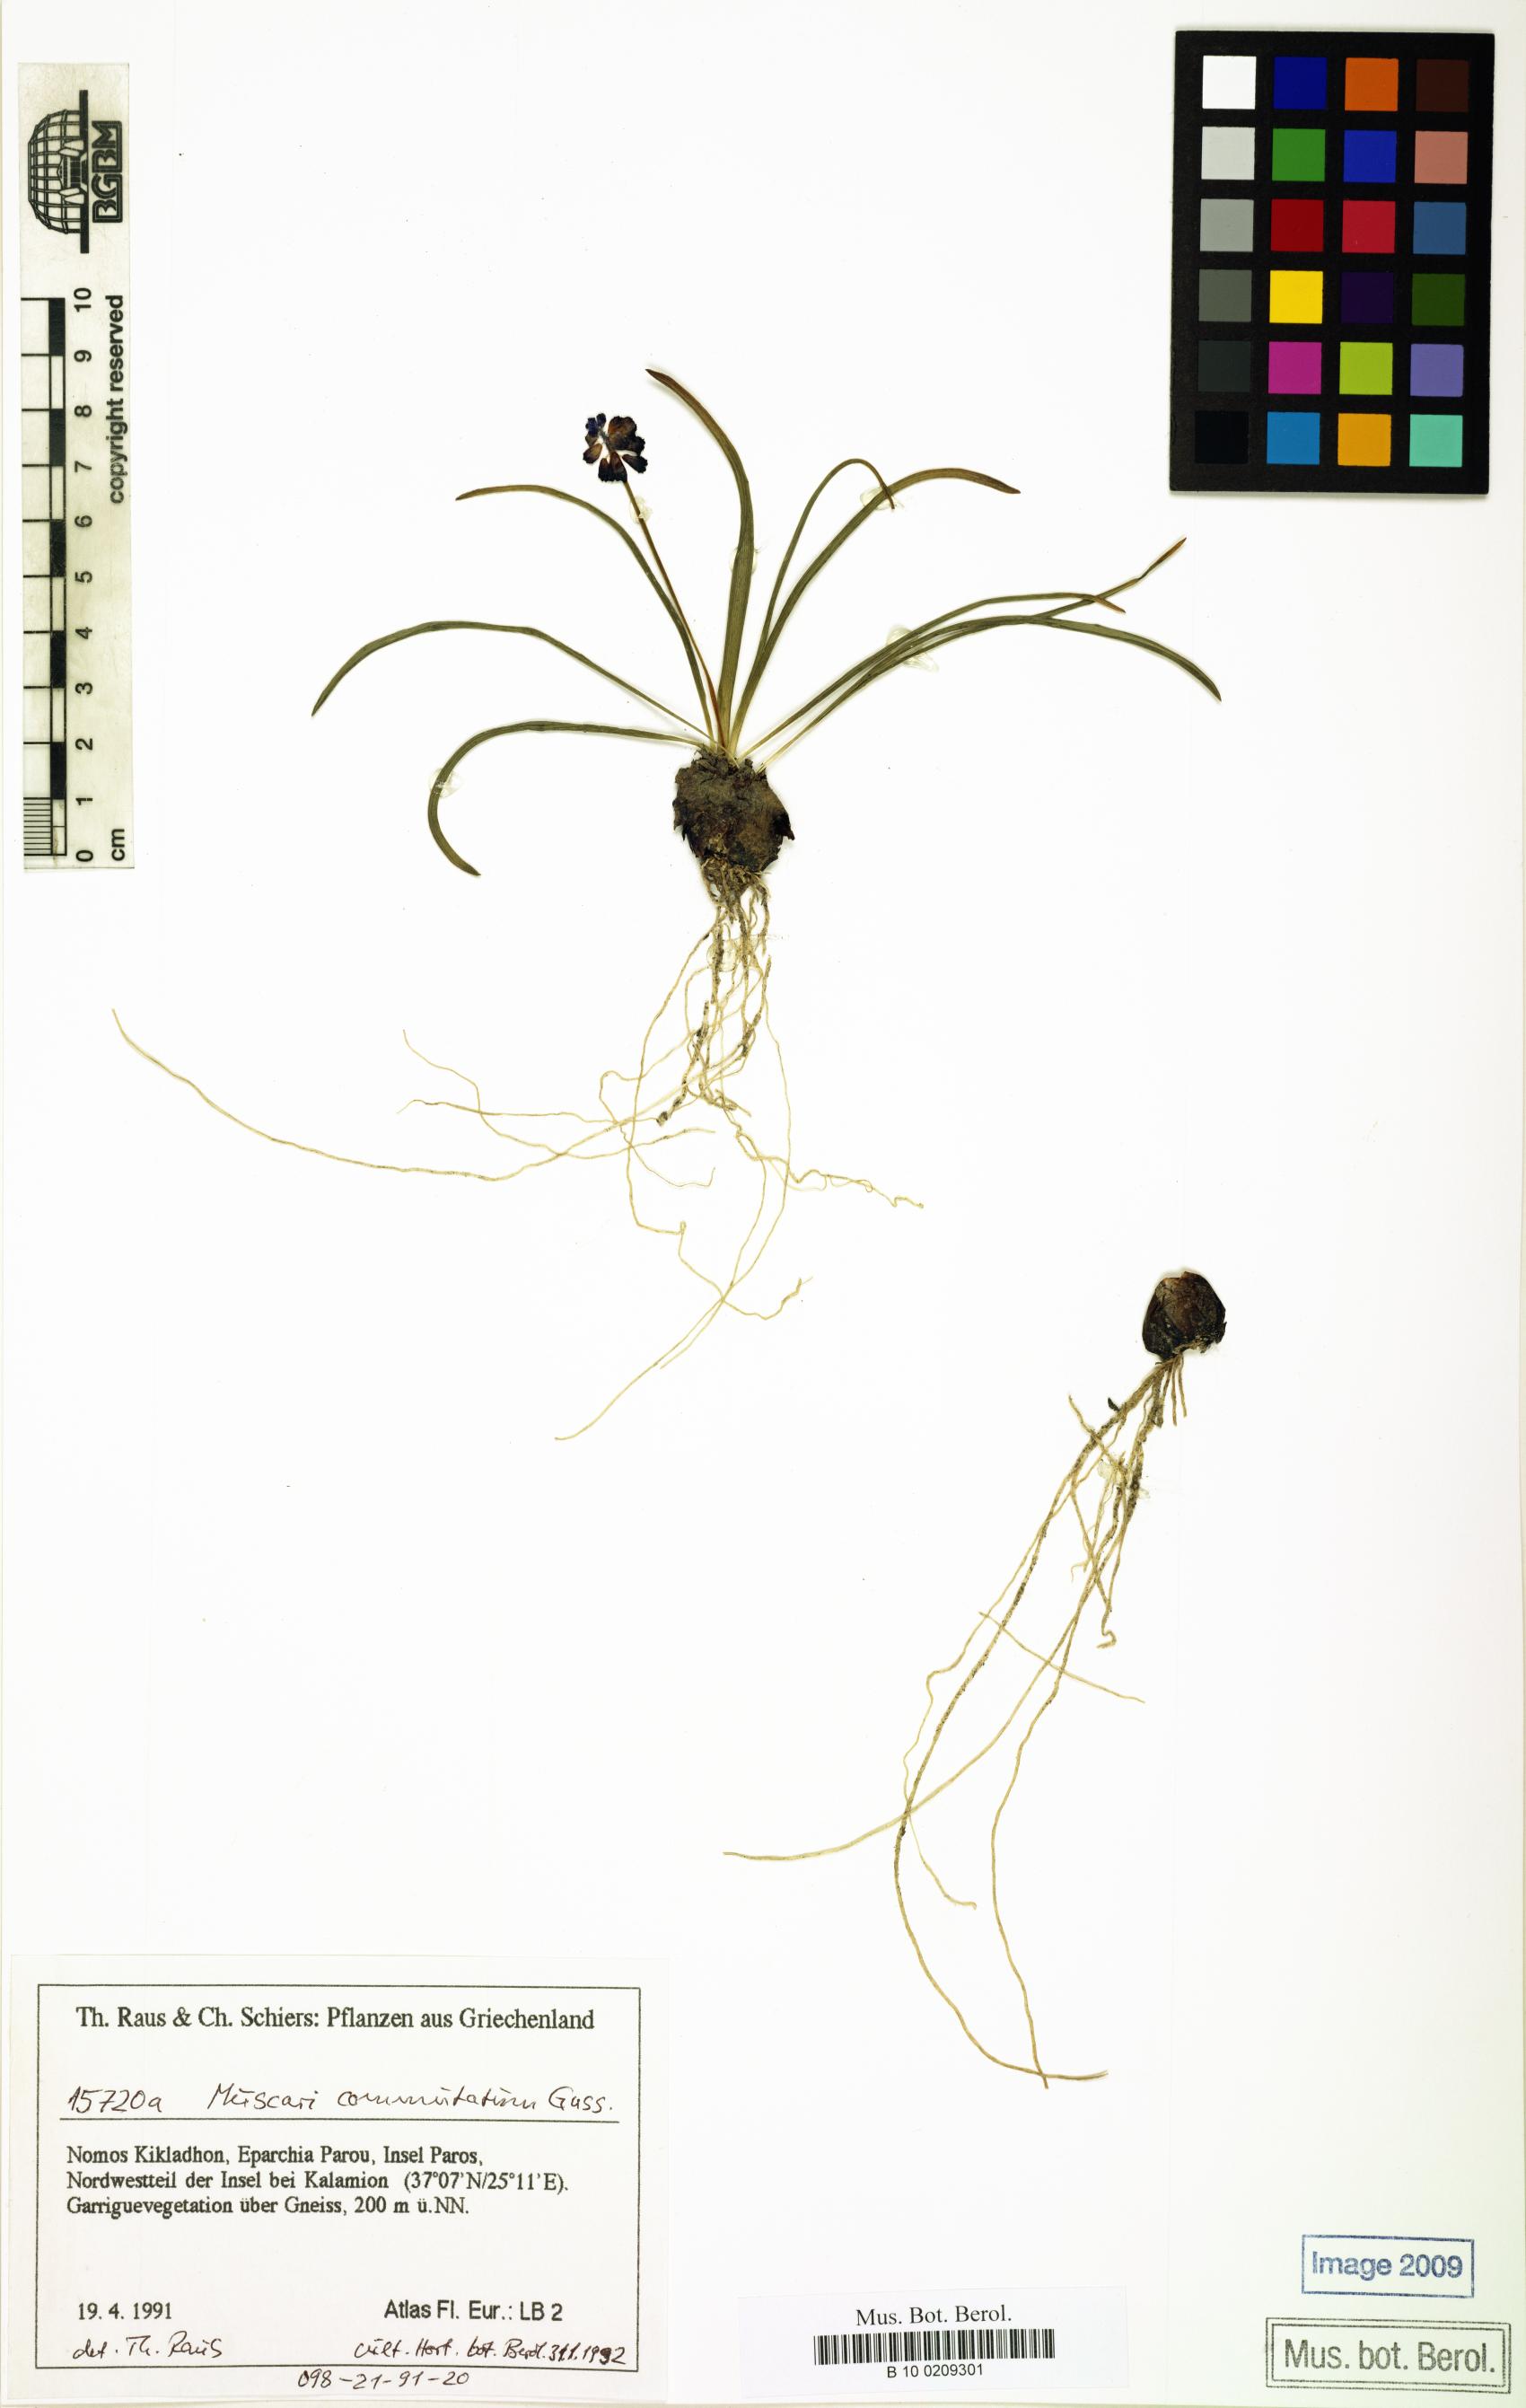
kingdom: Plantae
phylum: Tracheophyta
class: Liliopsida
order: Asparagales
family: Asparagaceae
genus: Muscari
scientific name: Muscari commutatum
